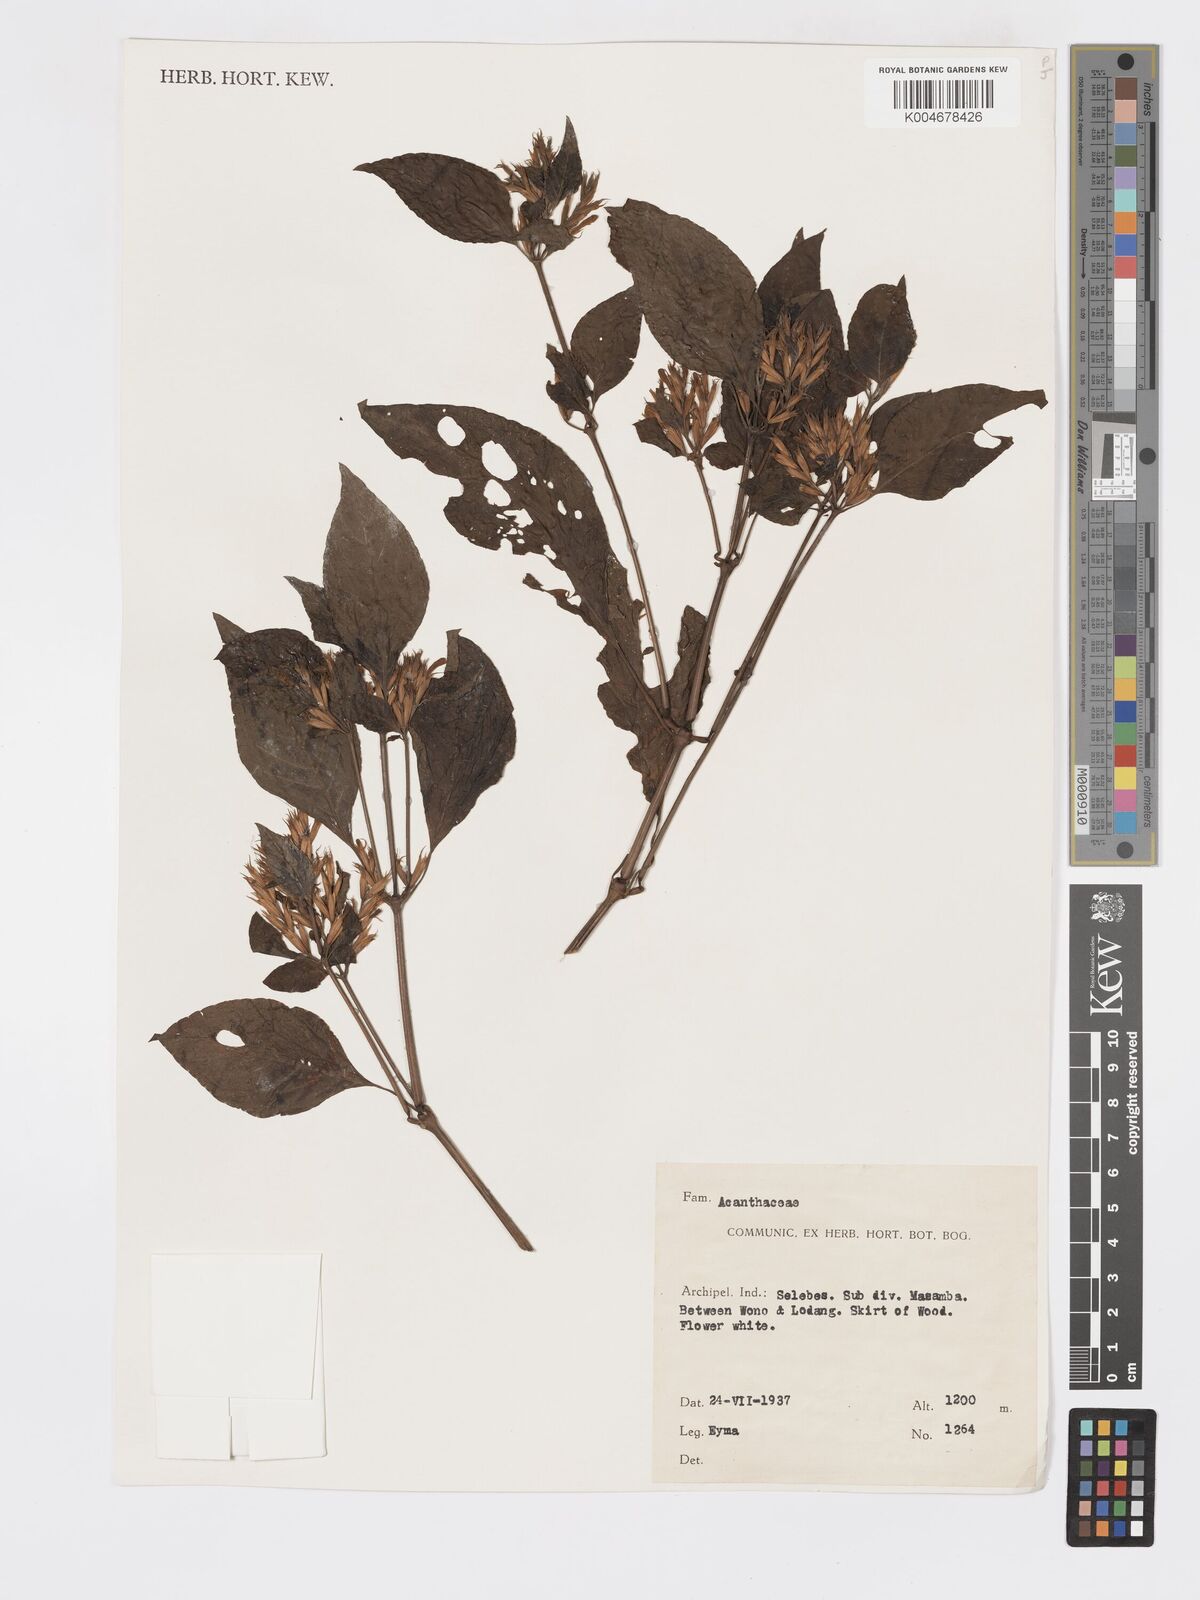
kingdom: Plantae
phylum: Tracheophyta
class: Magnoliopsida
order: Lamiales
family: Acanthaceae
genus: Hypoestes
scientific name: Hypoestes
